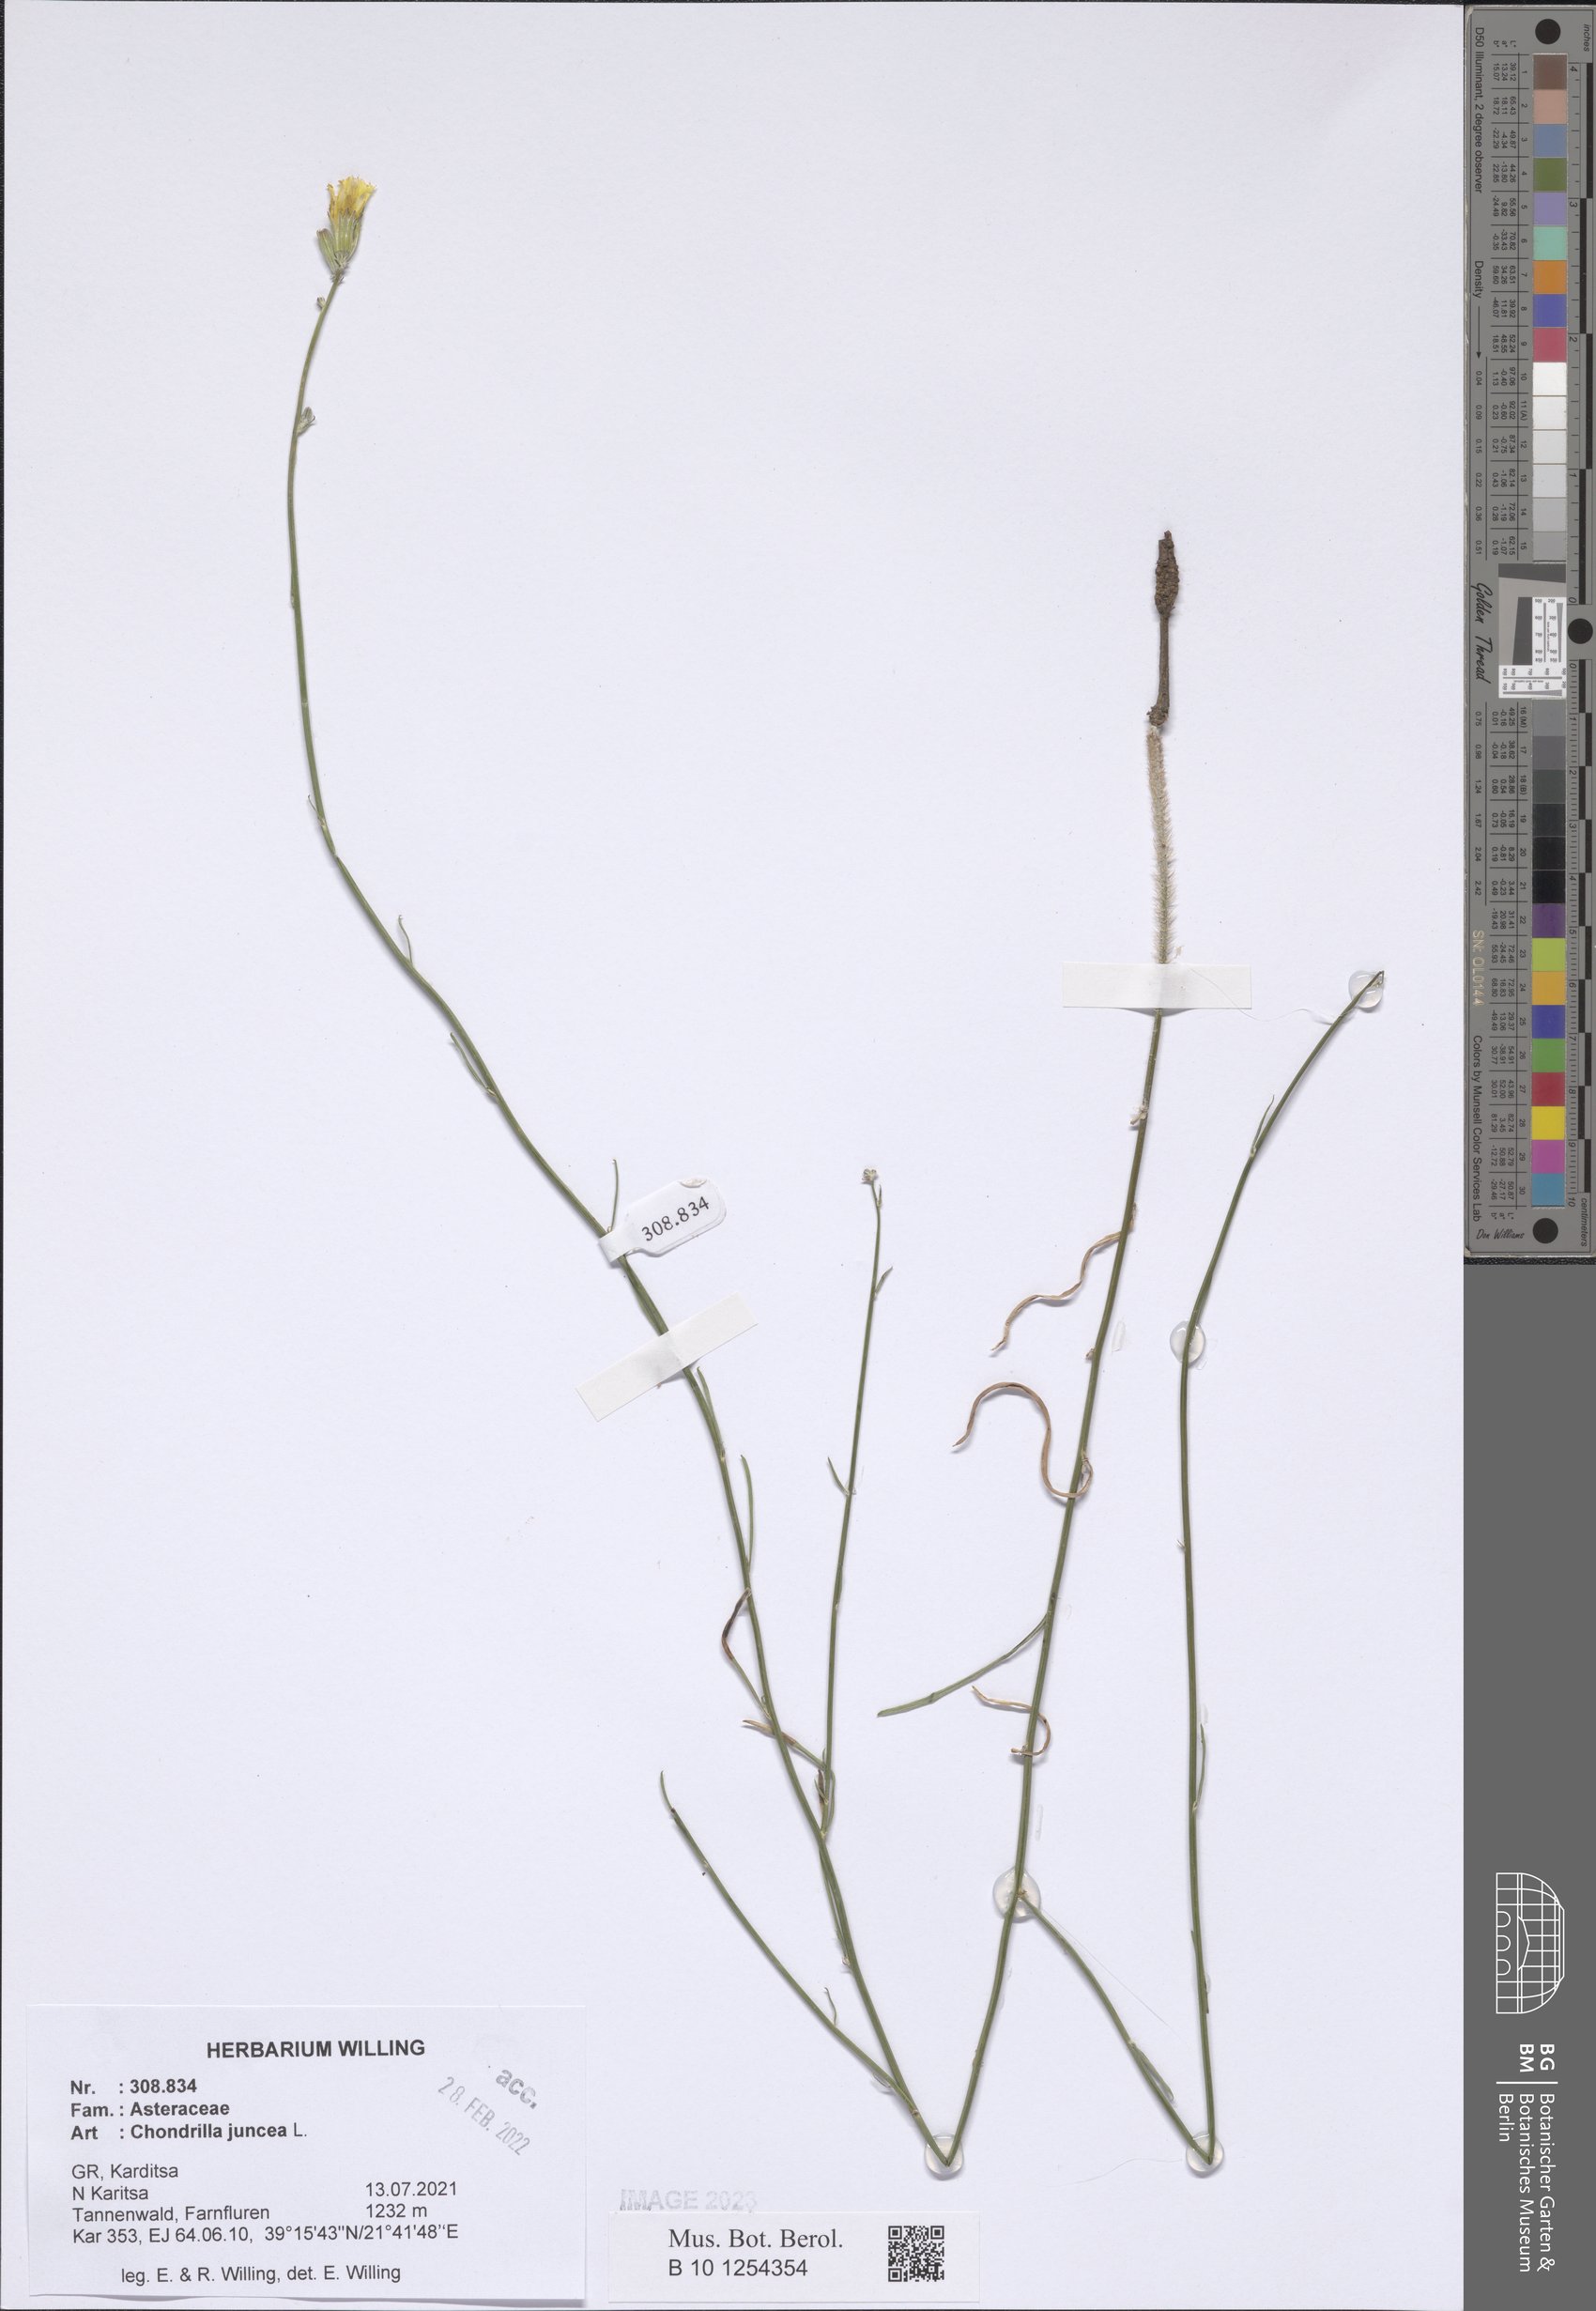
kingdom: Plantae
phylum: Tracheophyta
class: Magnoliopsida
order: Asterales
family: Asteraceae
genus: Chondrilla
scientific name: Chondrilla juncea
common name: Skeleton weed
